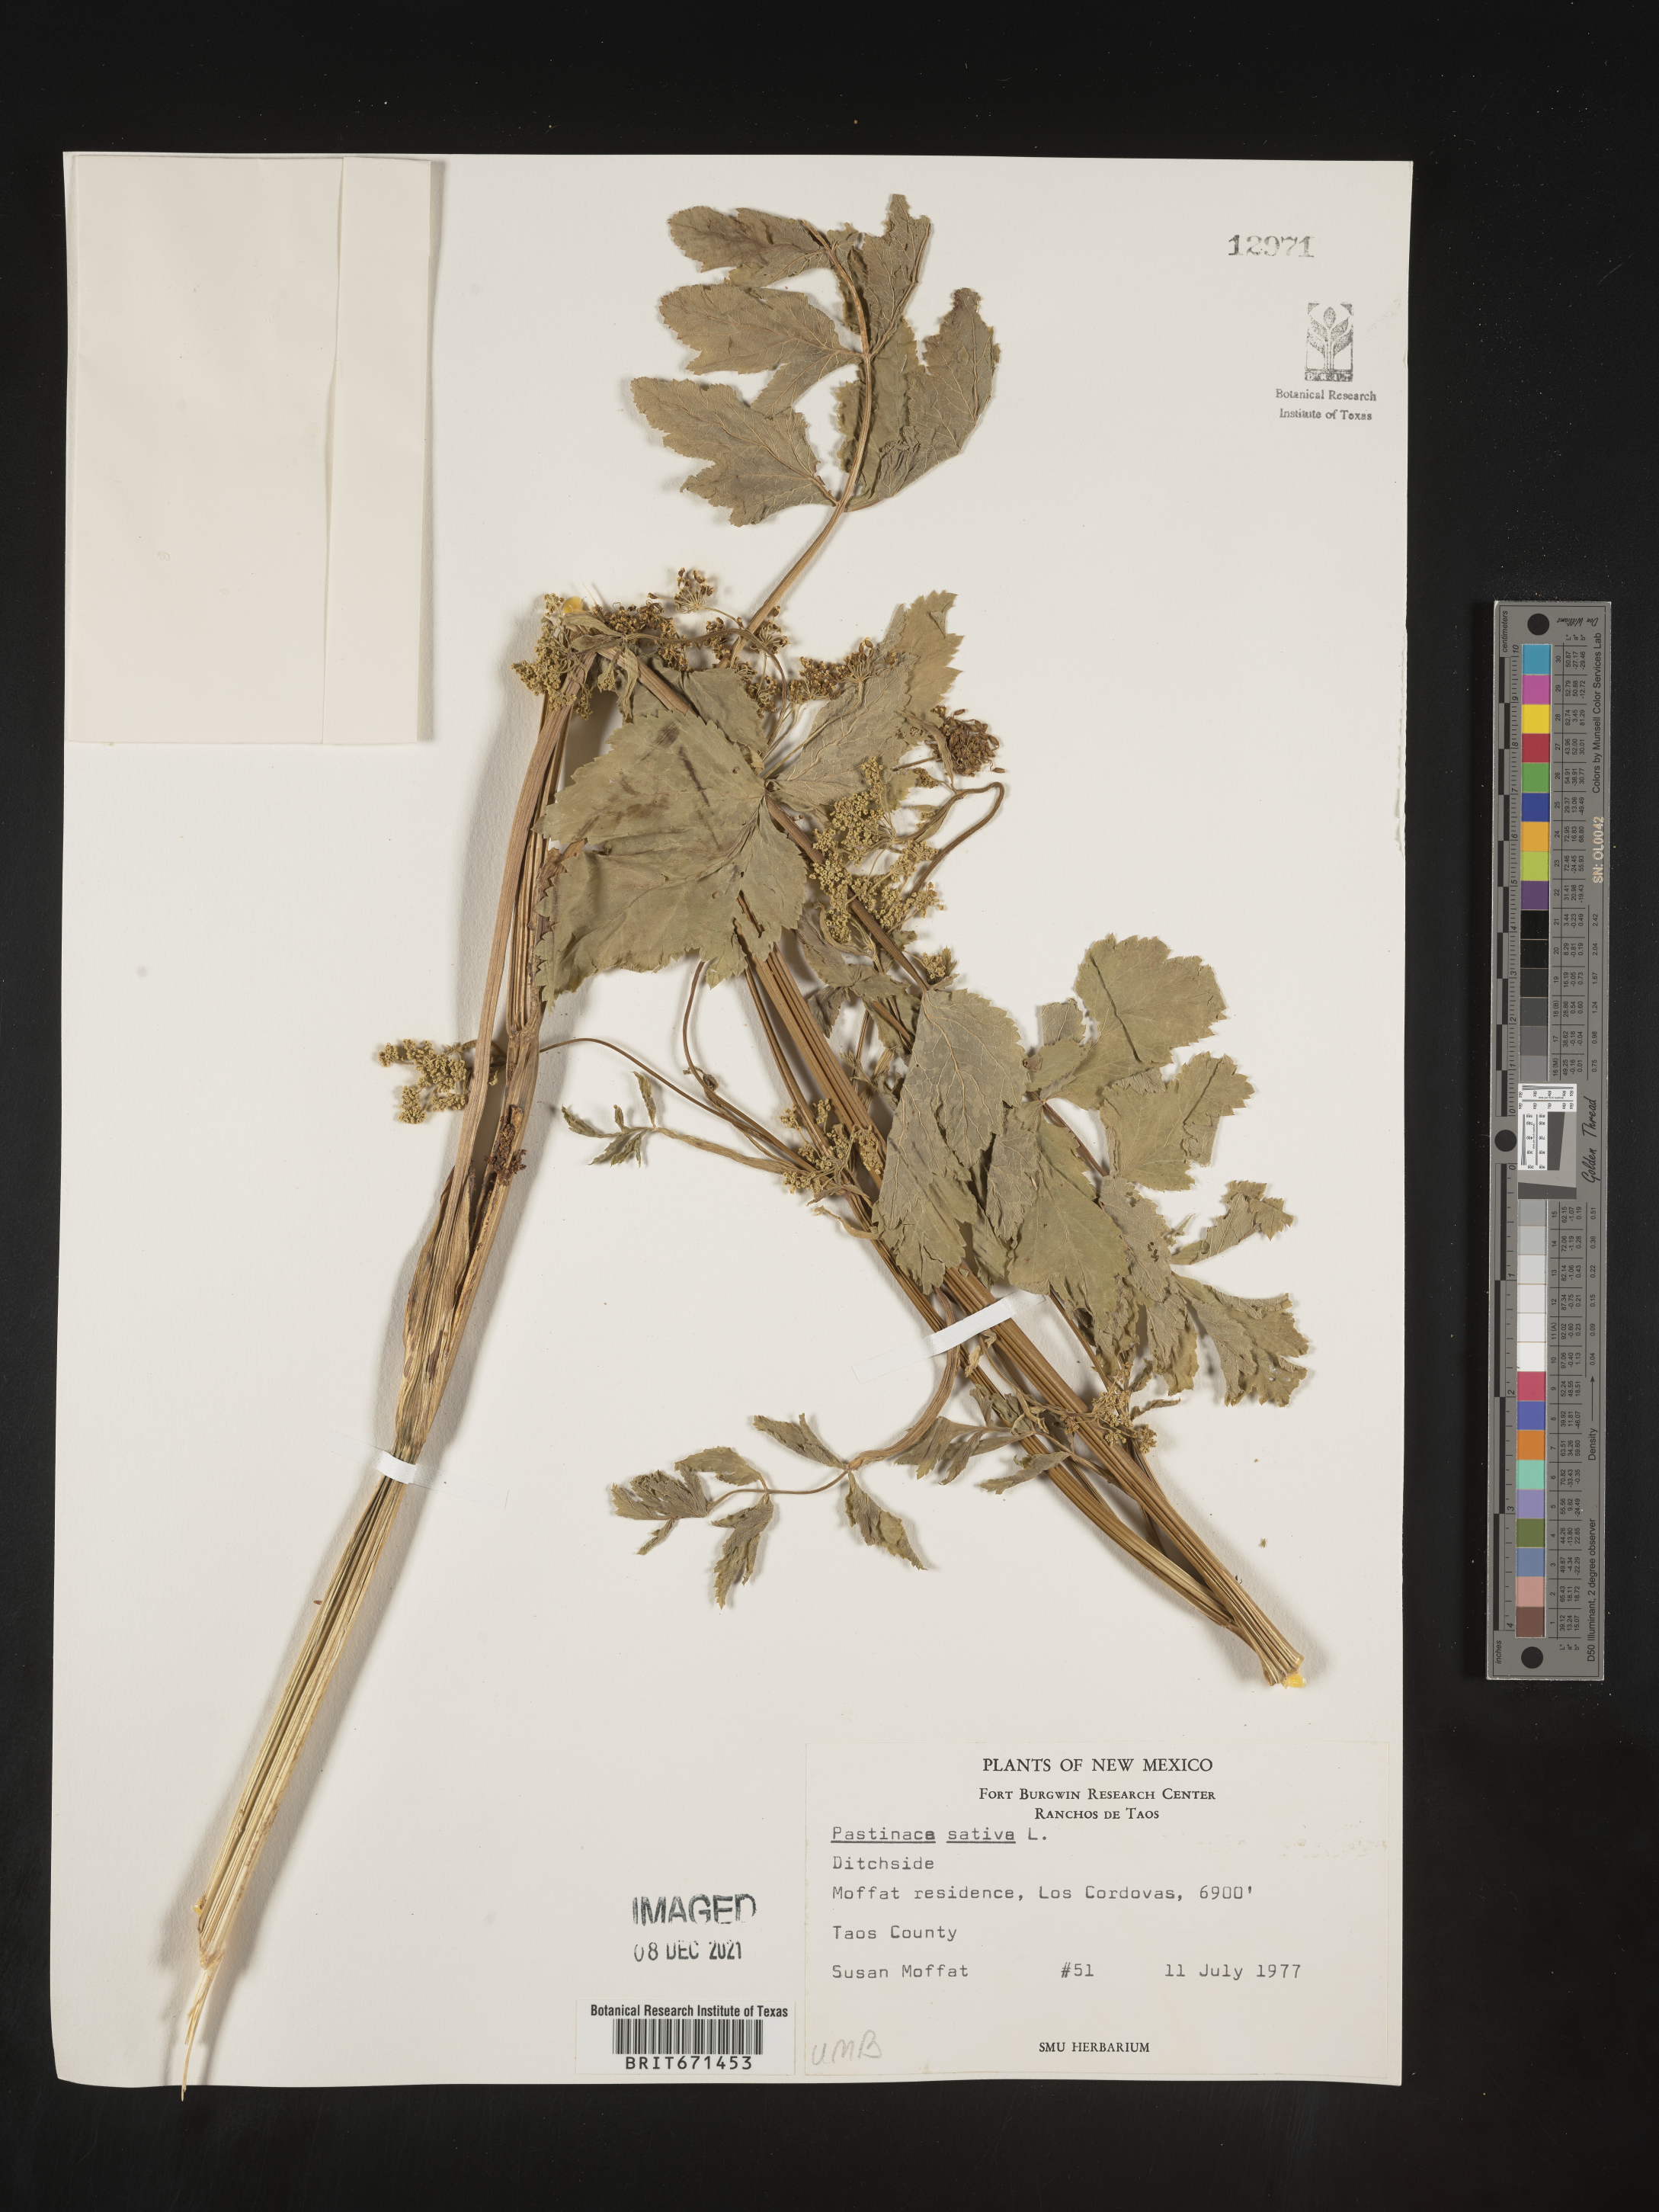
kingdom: Plantae
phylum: Tracheophyta
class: Magnoliopsida
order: Apiales
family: Apiaceae
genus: Pastinaca
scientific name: Pastinaca
